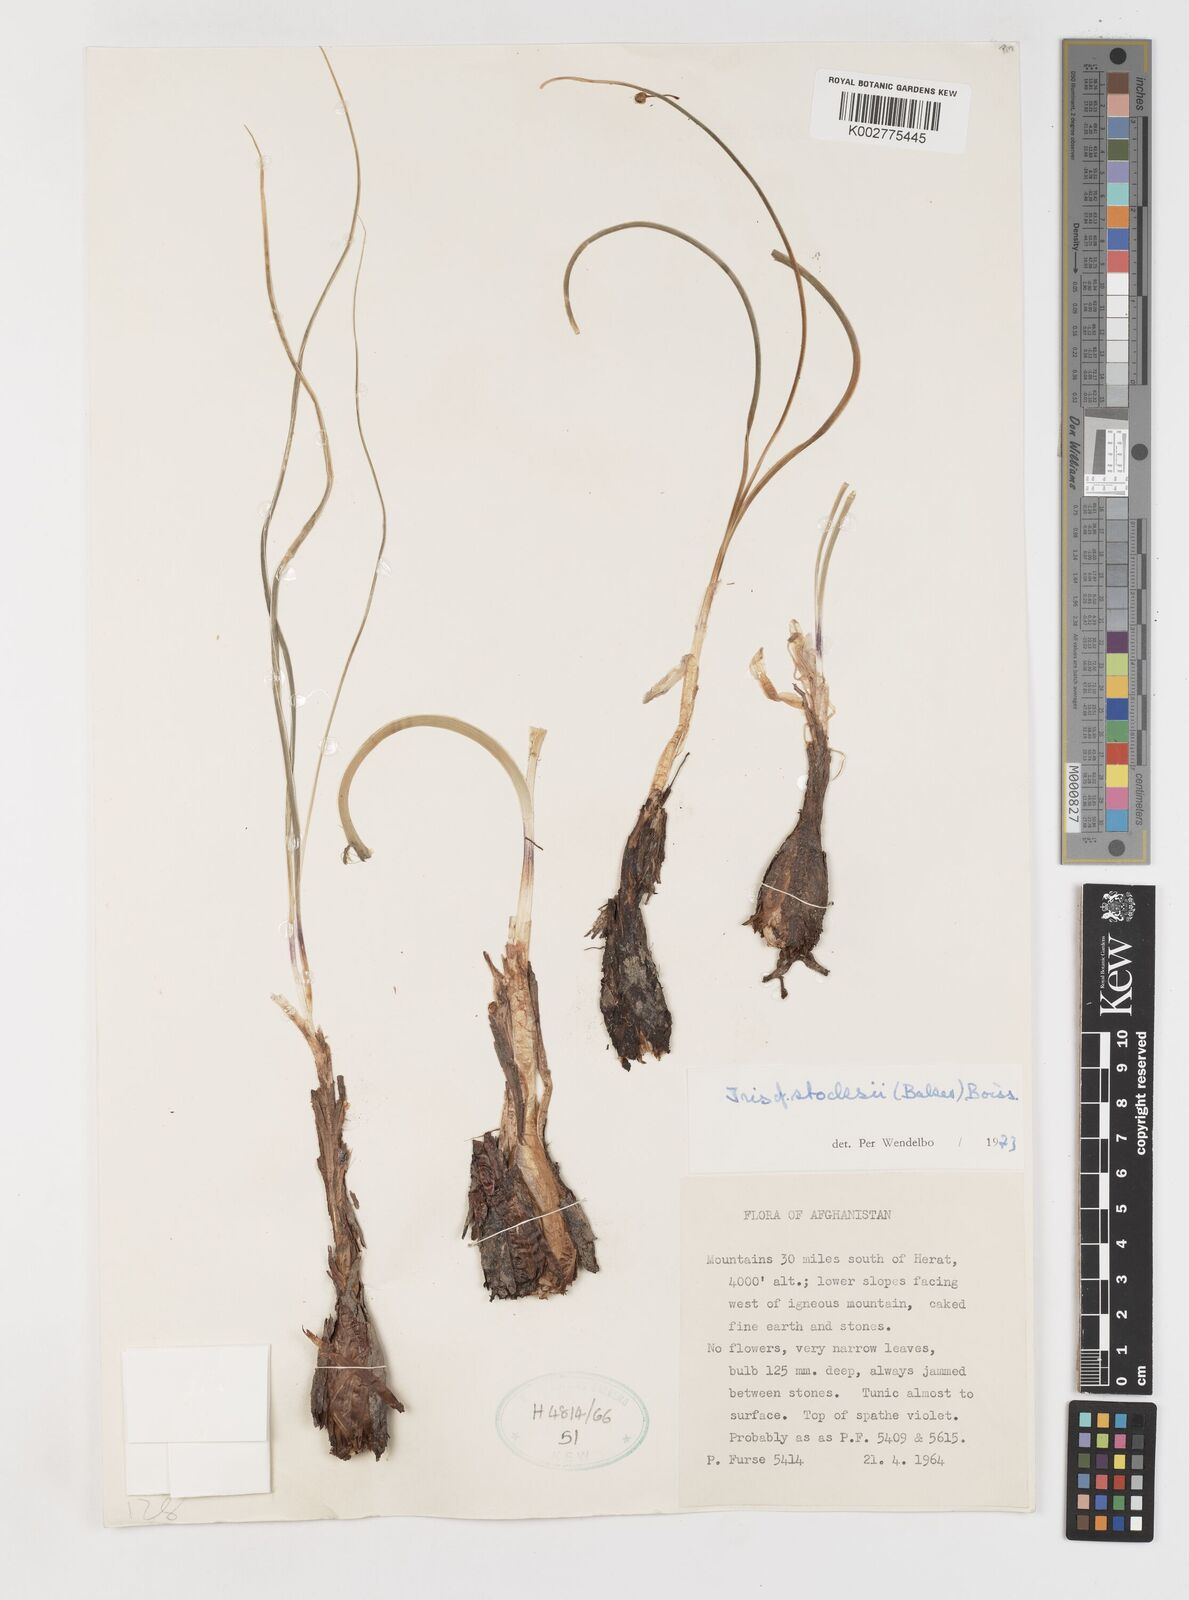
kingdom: Plantae
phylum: Tracheophyta
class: Liliopsida
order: Asparagales
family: Iridaceae
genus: Iris
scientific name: Iris stocksii
